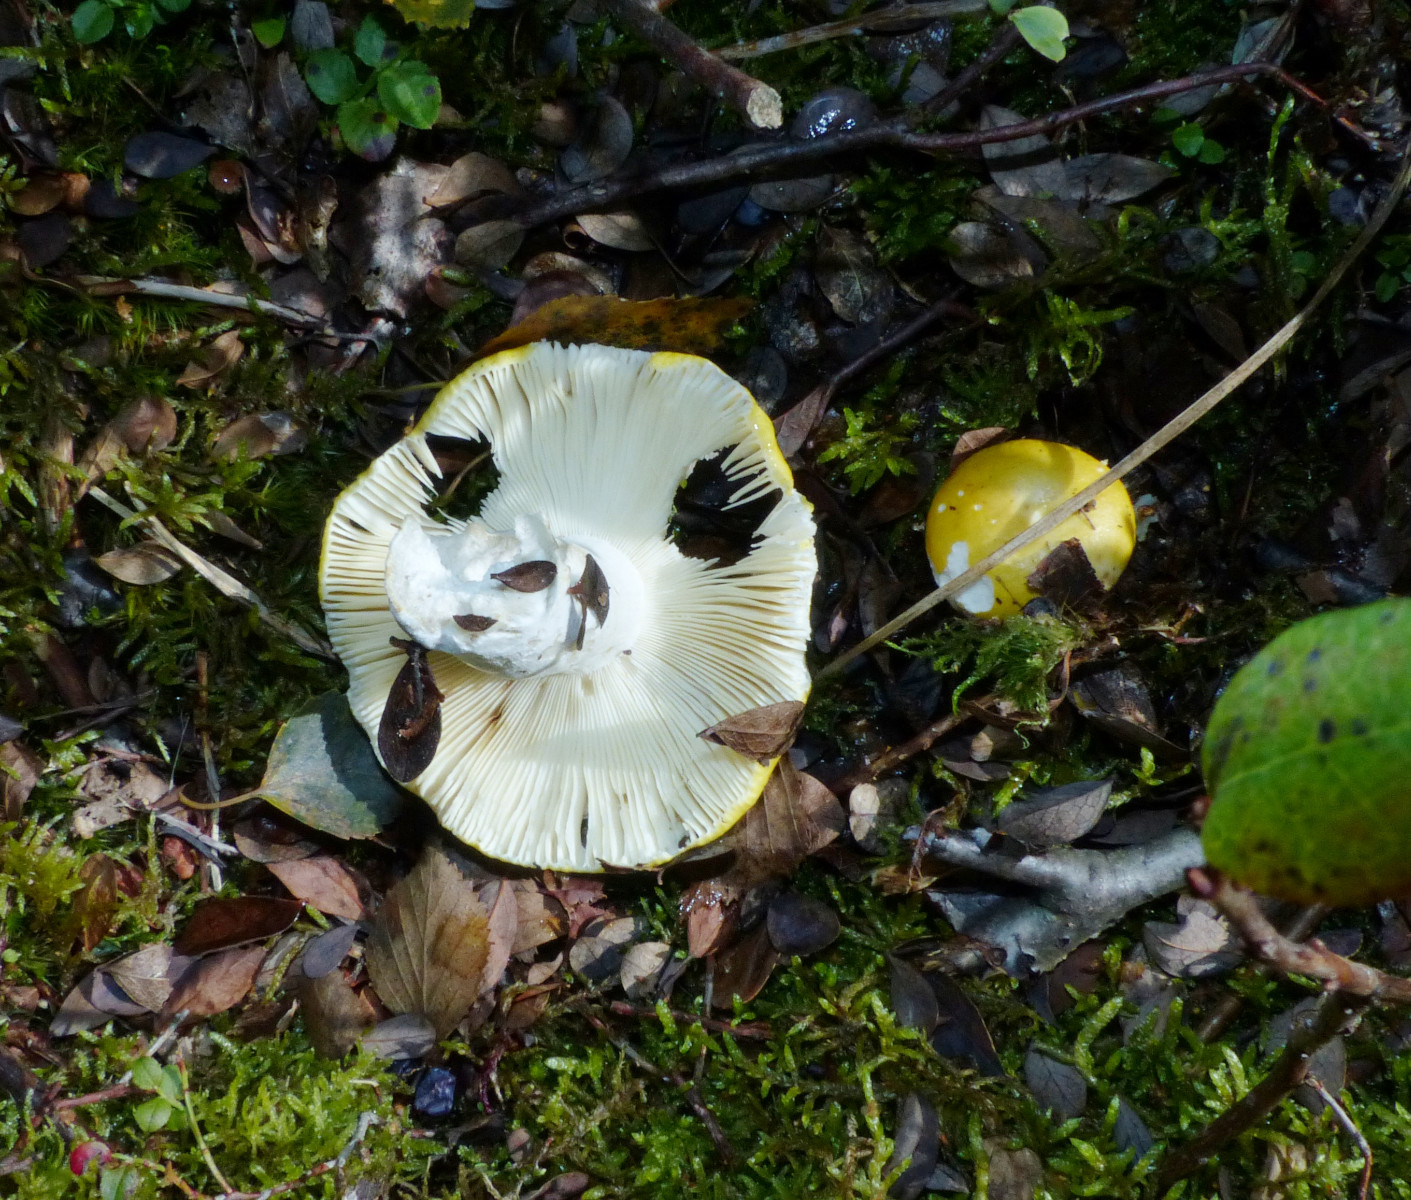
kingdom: Fungi
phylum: Basidiomycota
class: Agaricomycetes
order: Russulales
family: Russulaceae
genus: Russula
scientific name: Russula claroflava
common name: birke-skørhat
